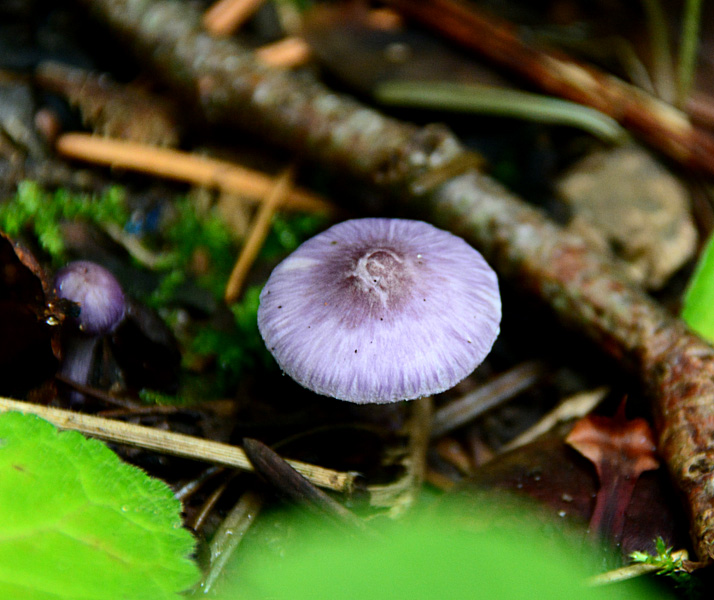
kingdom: Fungi
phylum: Basidiomycota
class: Agaricomycetes
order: Agaricales
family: Inocybaceae
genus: Inocybe
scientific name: Inocybe geophylla
